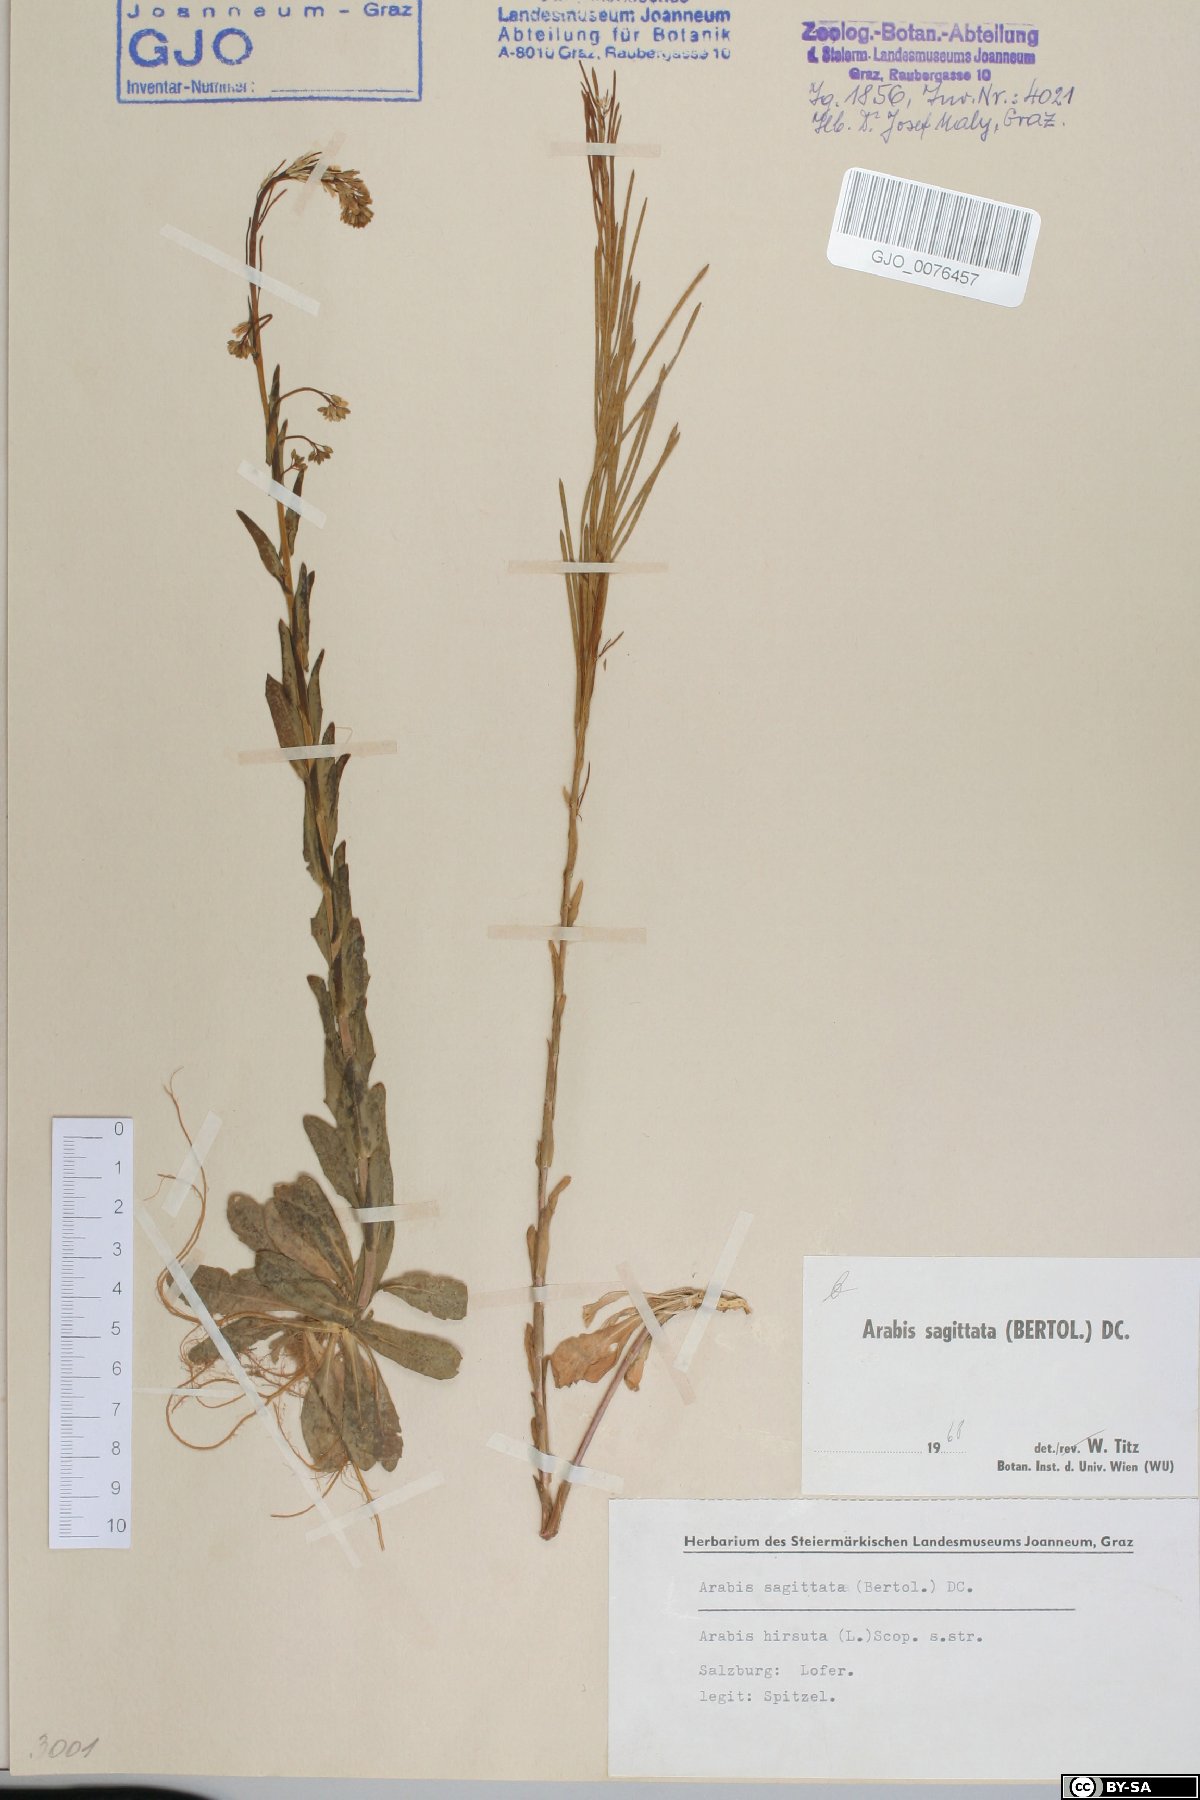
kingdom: Plantae
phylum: Tracheophyta
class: Magnoliopsida
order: Brassicales
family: Brassicaceae
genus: Arabis
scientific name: Arabis sagittata
